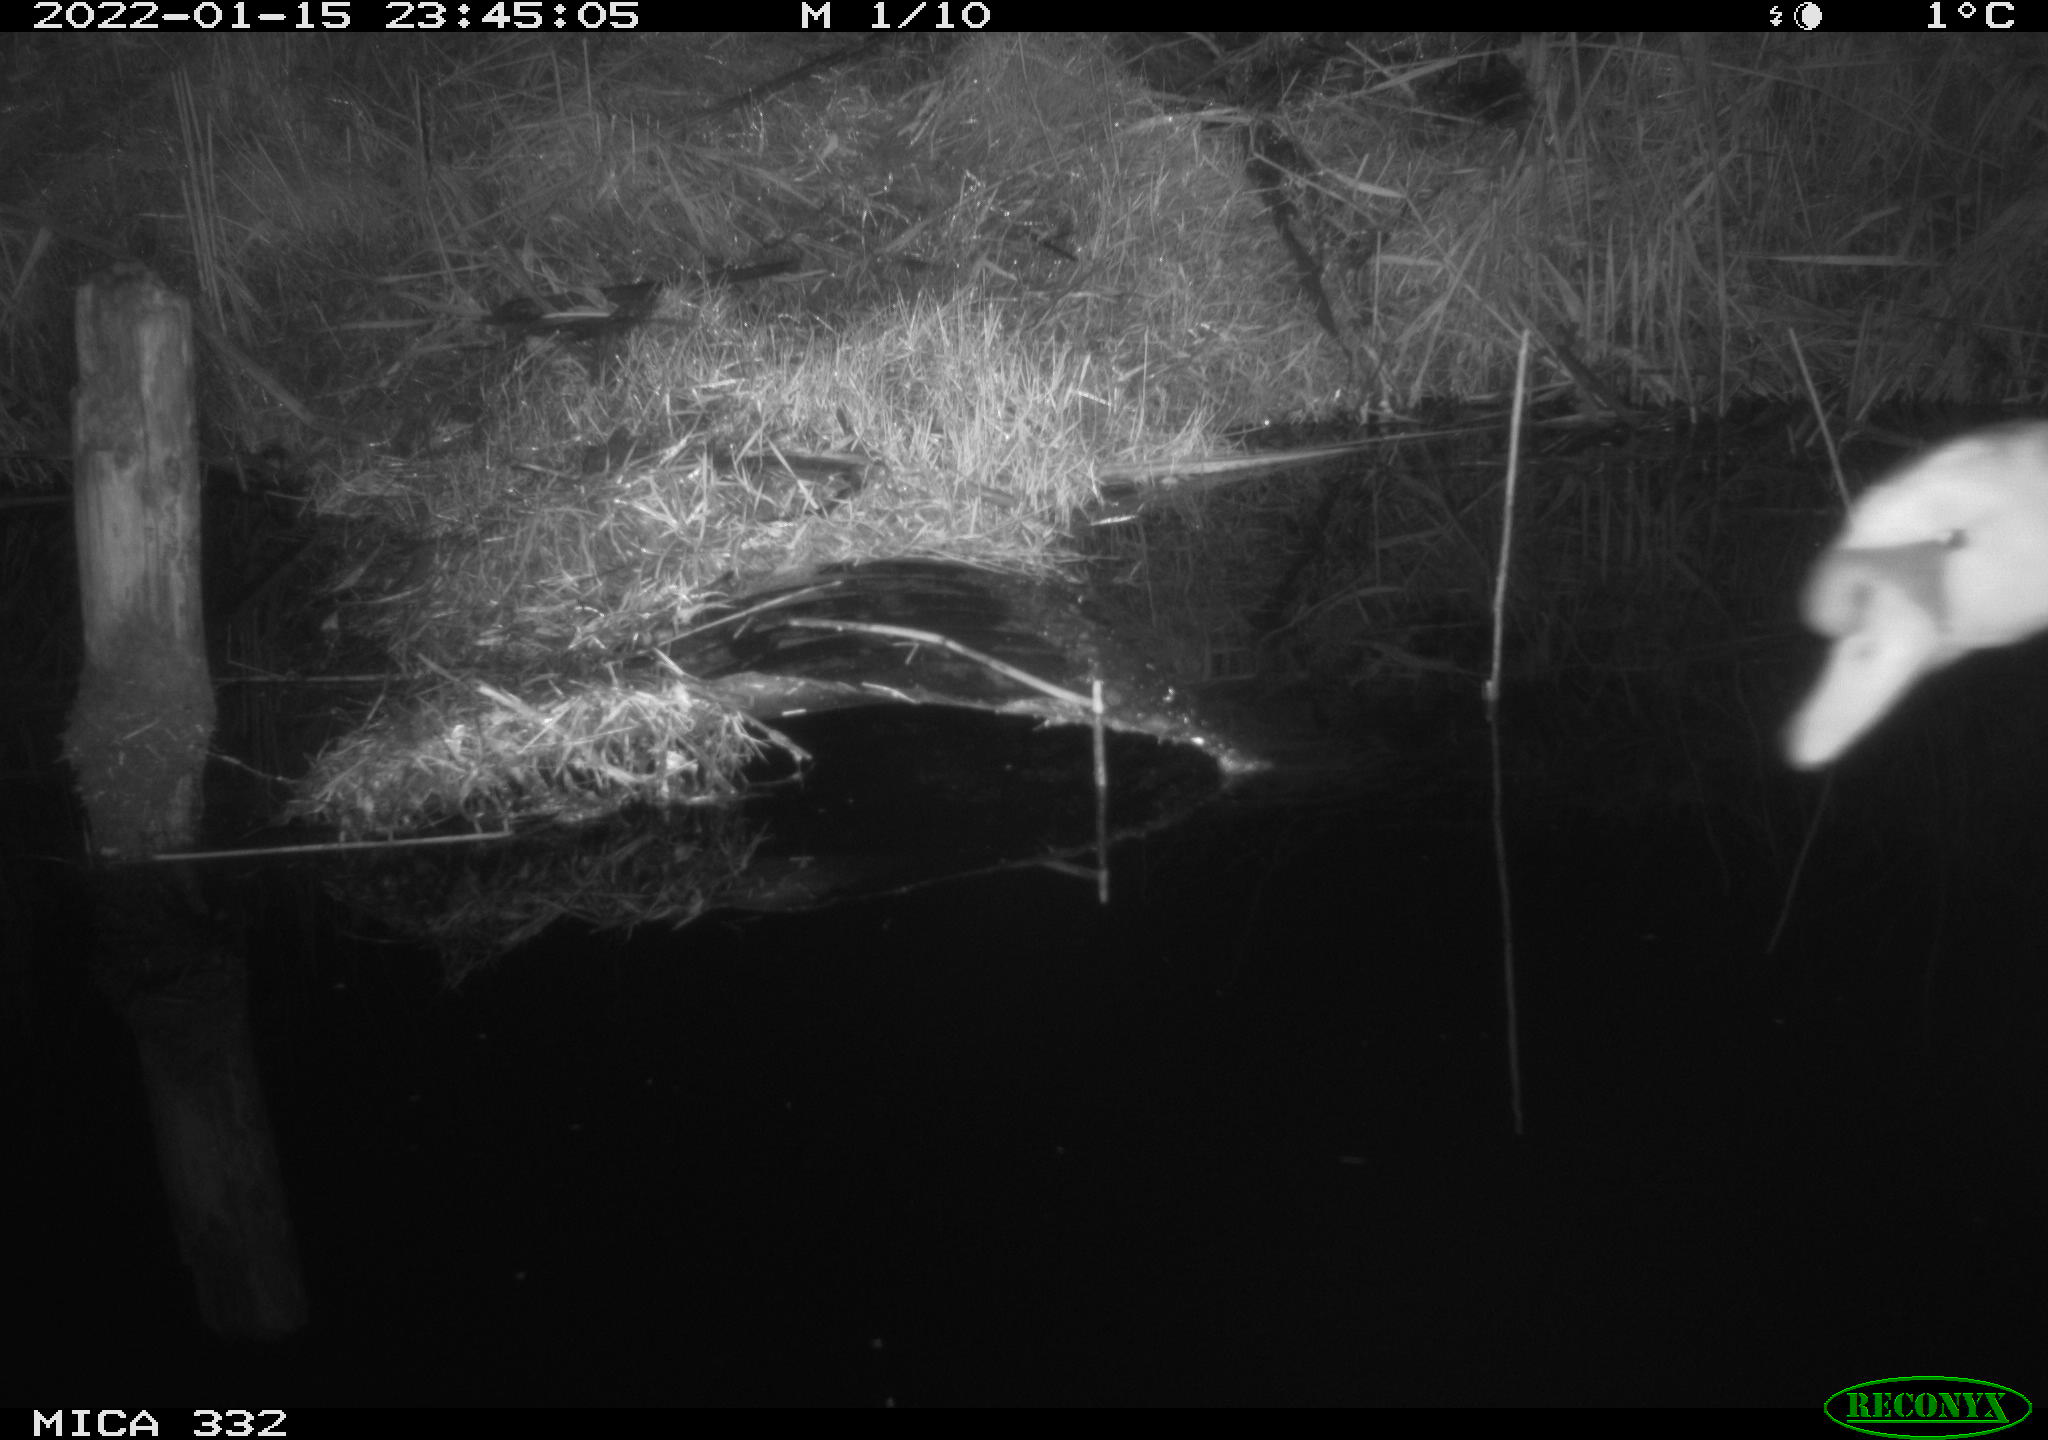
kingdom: Animalia
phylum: Chordata
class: Aves
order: Anseriformes
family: Anatidae
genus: Cygnus
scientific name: Cygnus olor
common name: Mute swan
